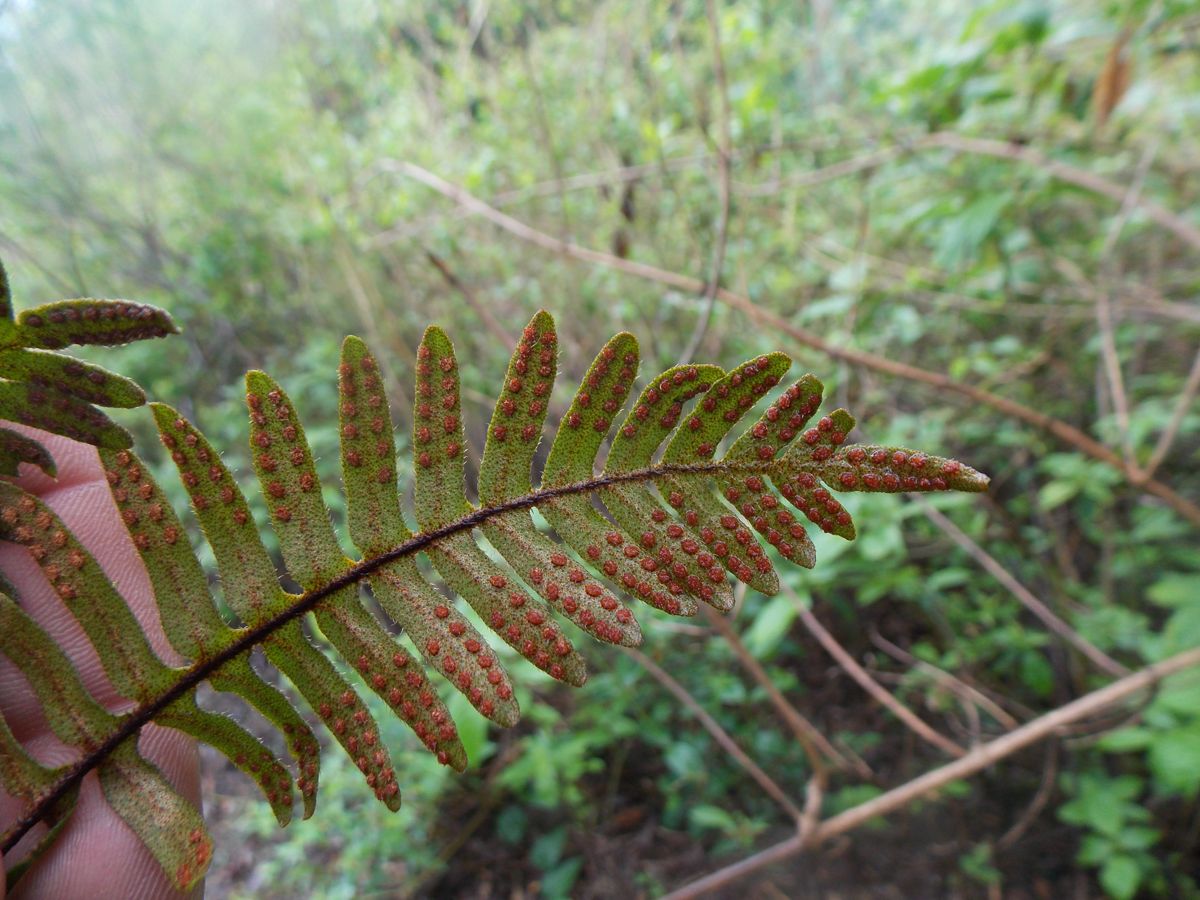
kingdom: Plantae
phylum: Tracheophyta
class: Polypodiopsida
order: Polypodiales
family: Polypodiaceae
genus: Pleopeltis
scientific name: Pleopeltis polypodioides
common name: Resurrection fern
